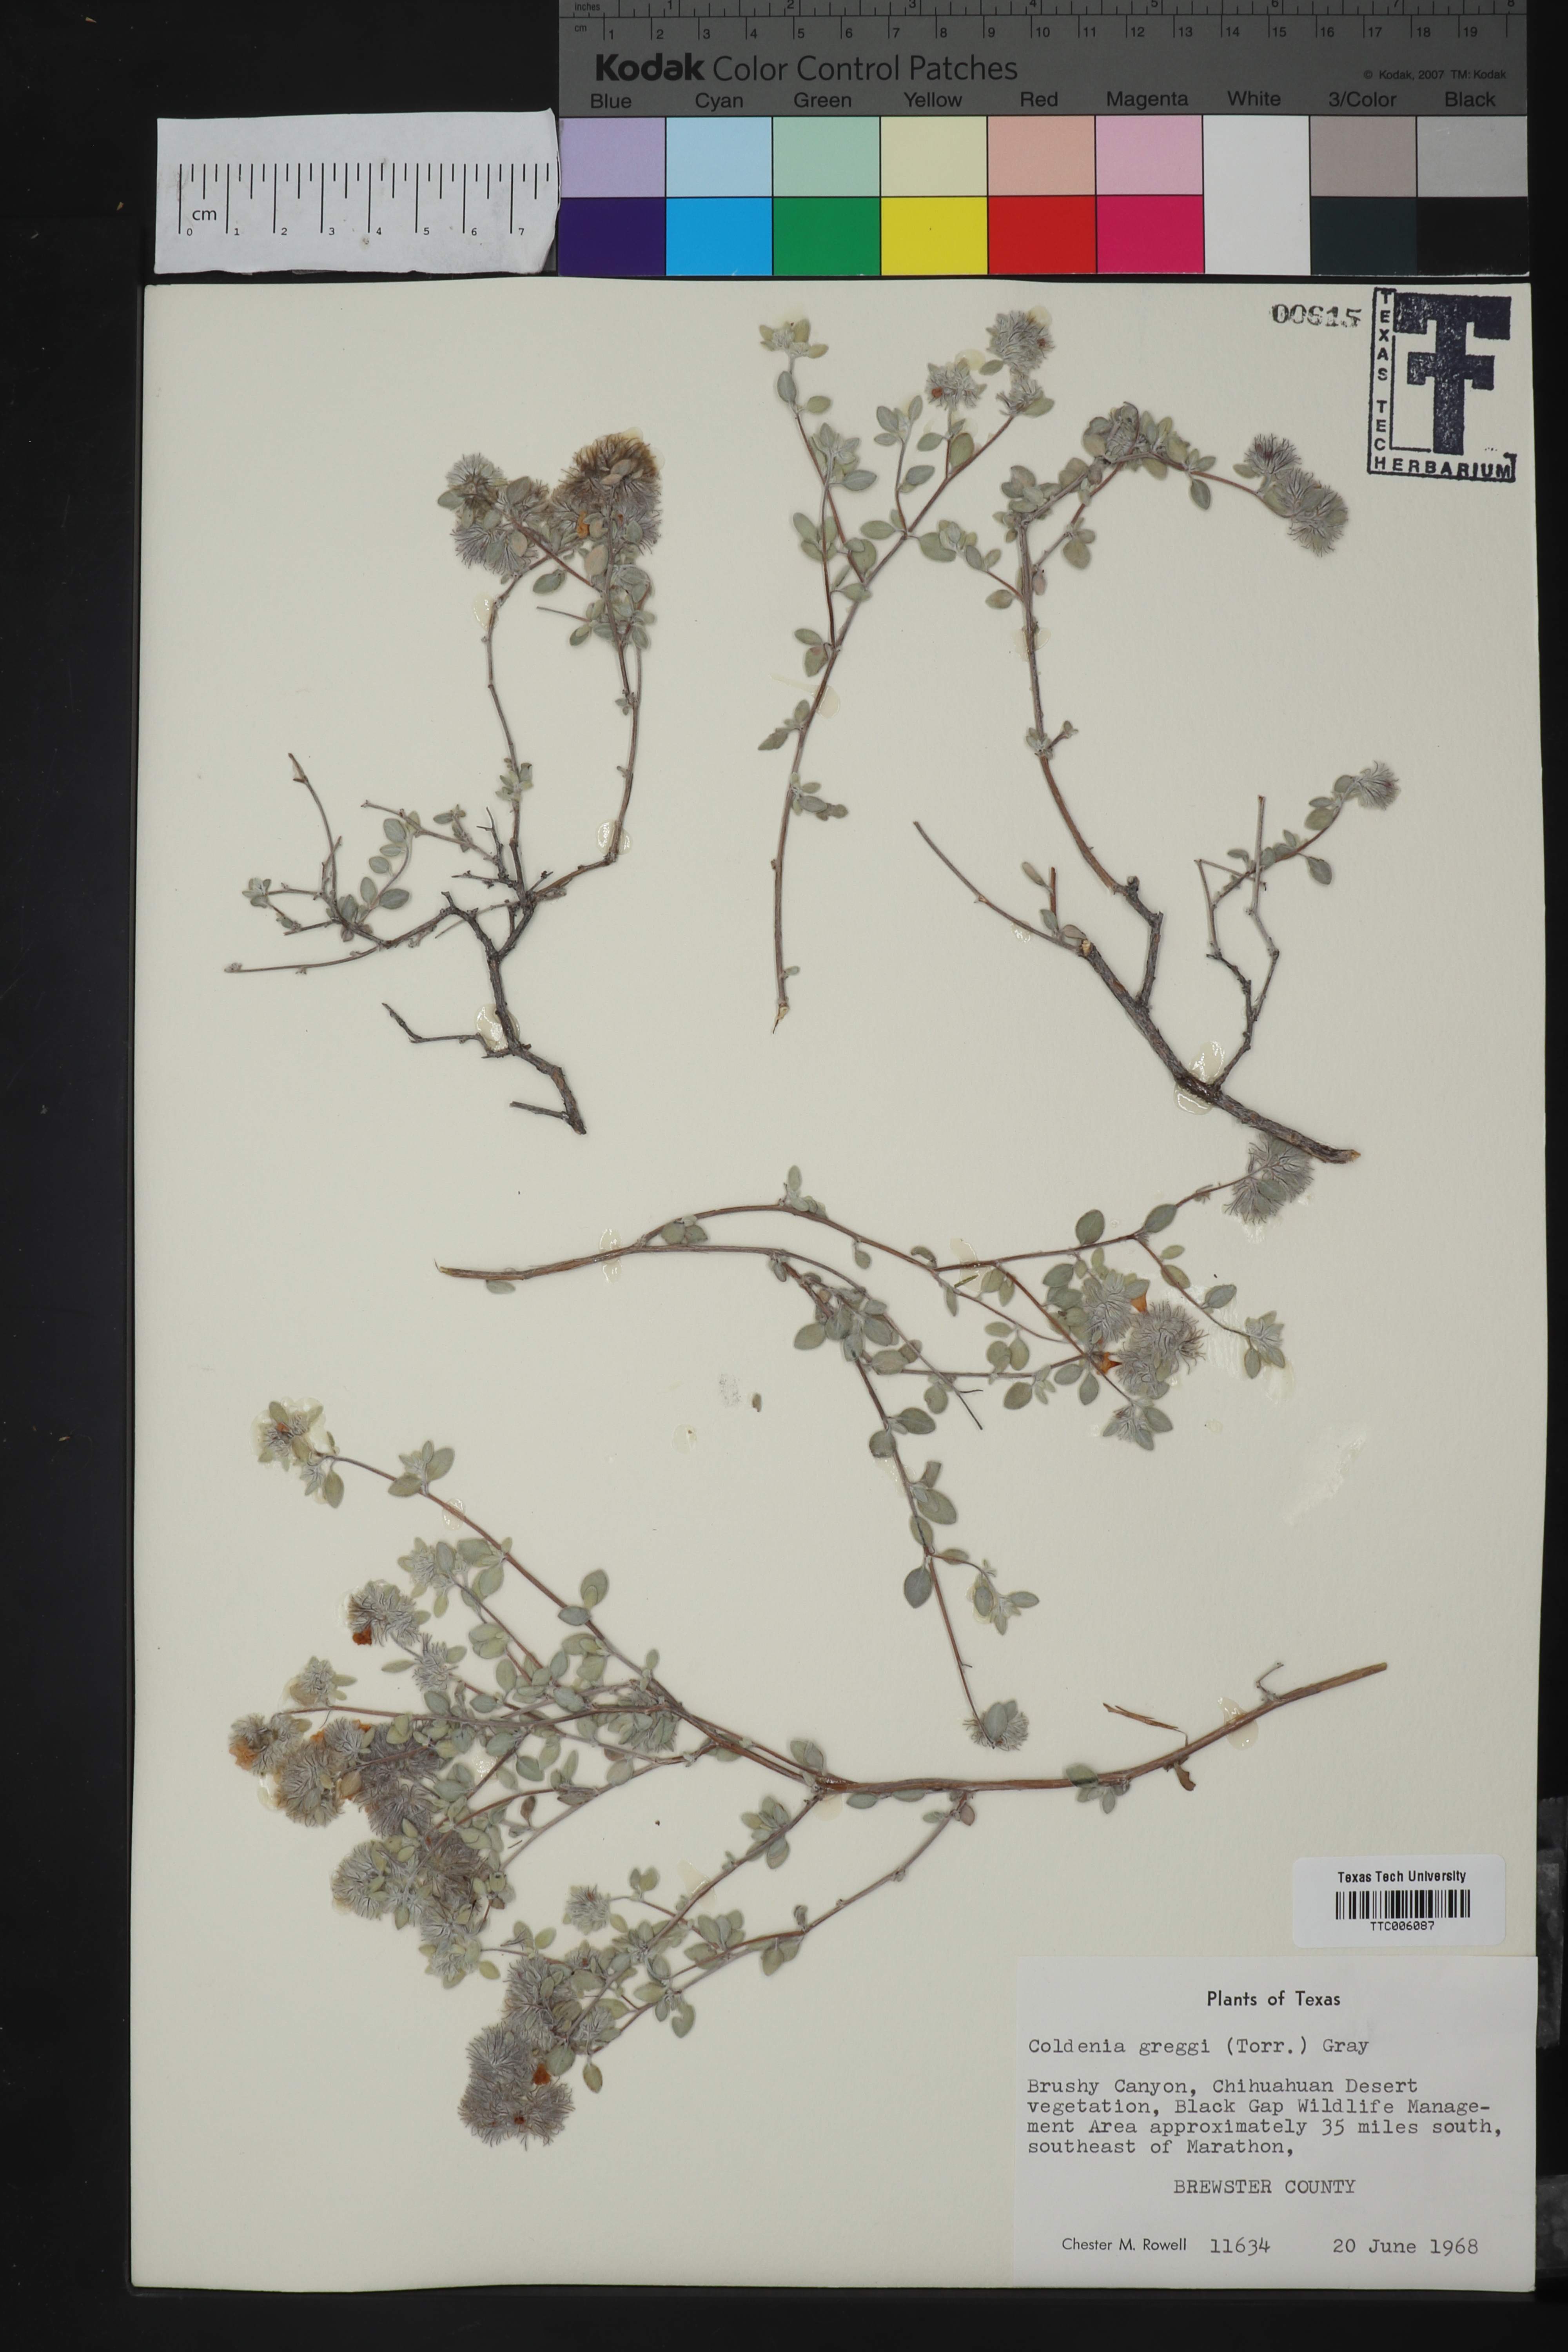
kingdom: Plantae
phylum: Tracheophyta
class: Magnoliopsida
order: Boraginales
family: Ehretiaceae
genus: Tiquilia
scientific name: Tiquilia greggii
